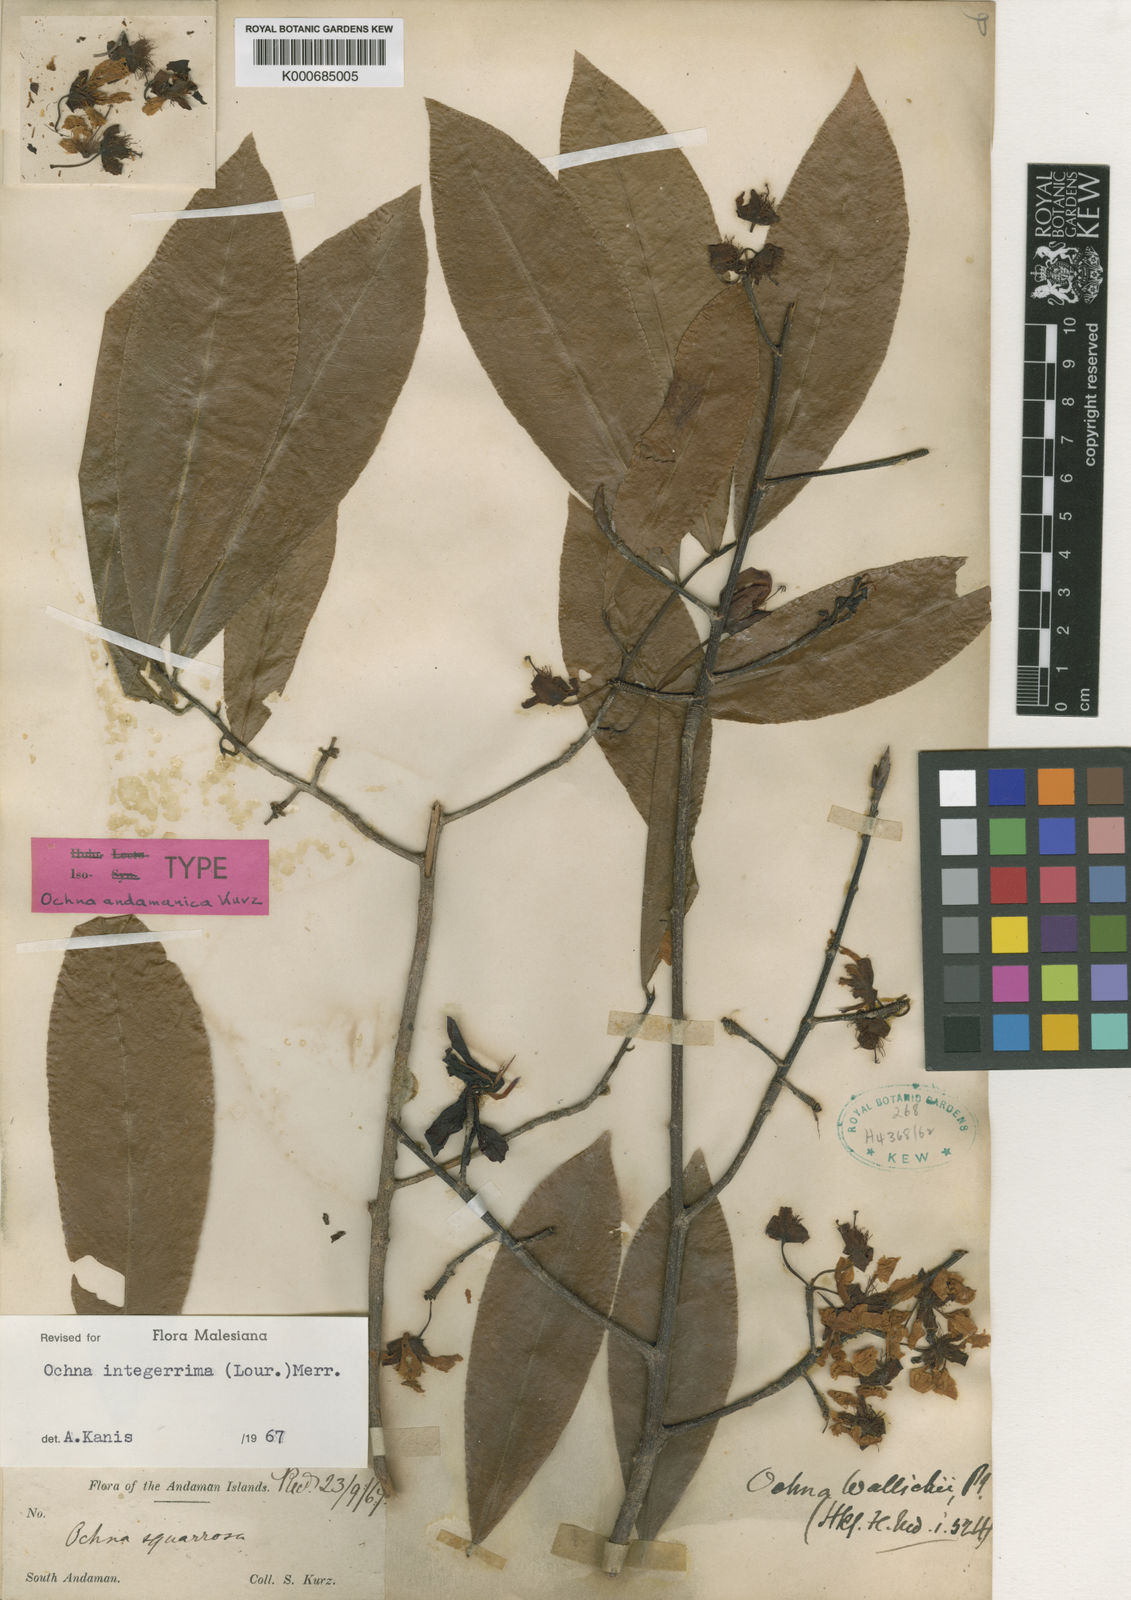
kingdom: Plantae
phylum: Tracheophyta
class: Magnoliopsida
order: Malpighiales
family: Ochnaceae
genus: Ochna
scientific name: Ochna integerrima
